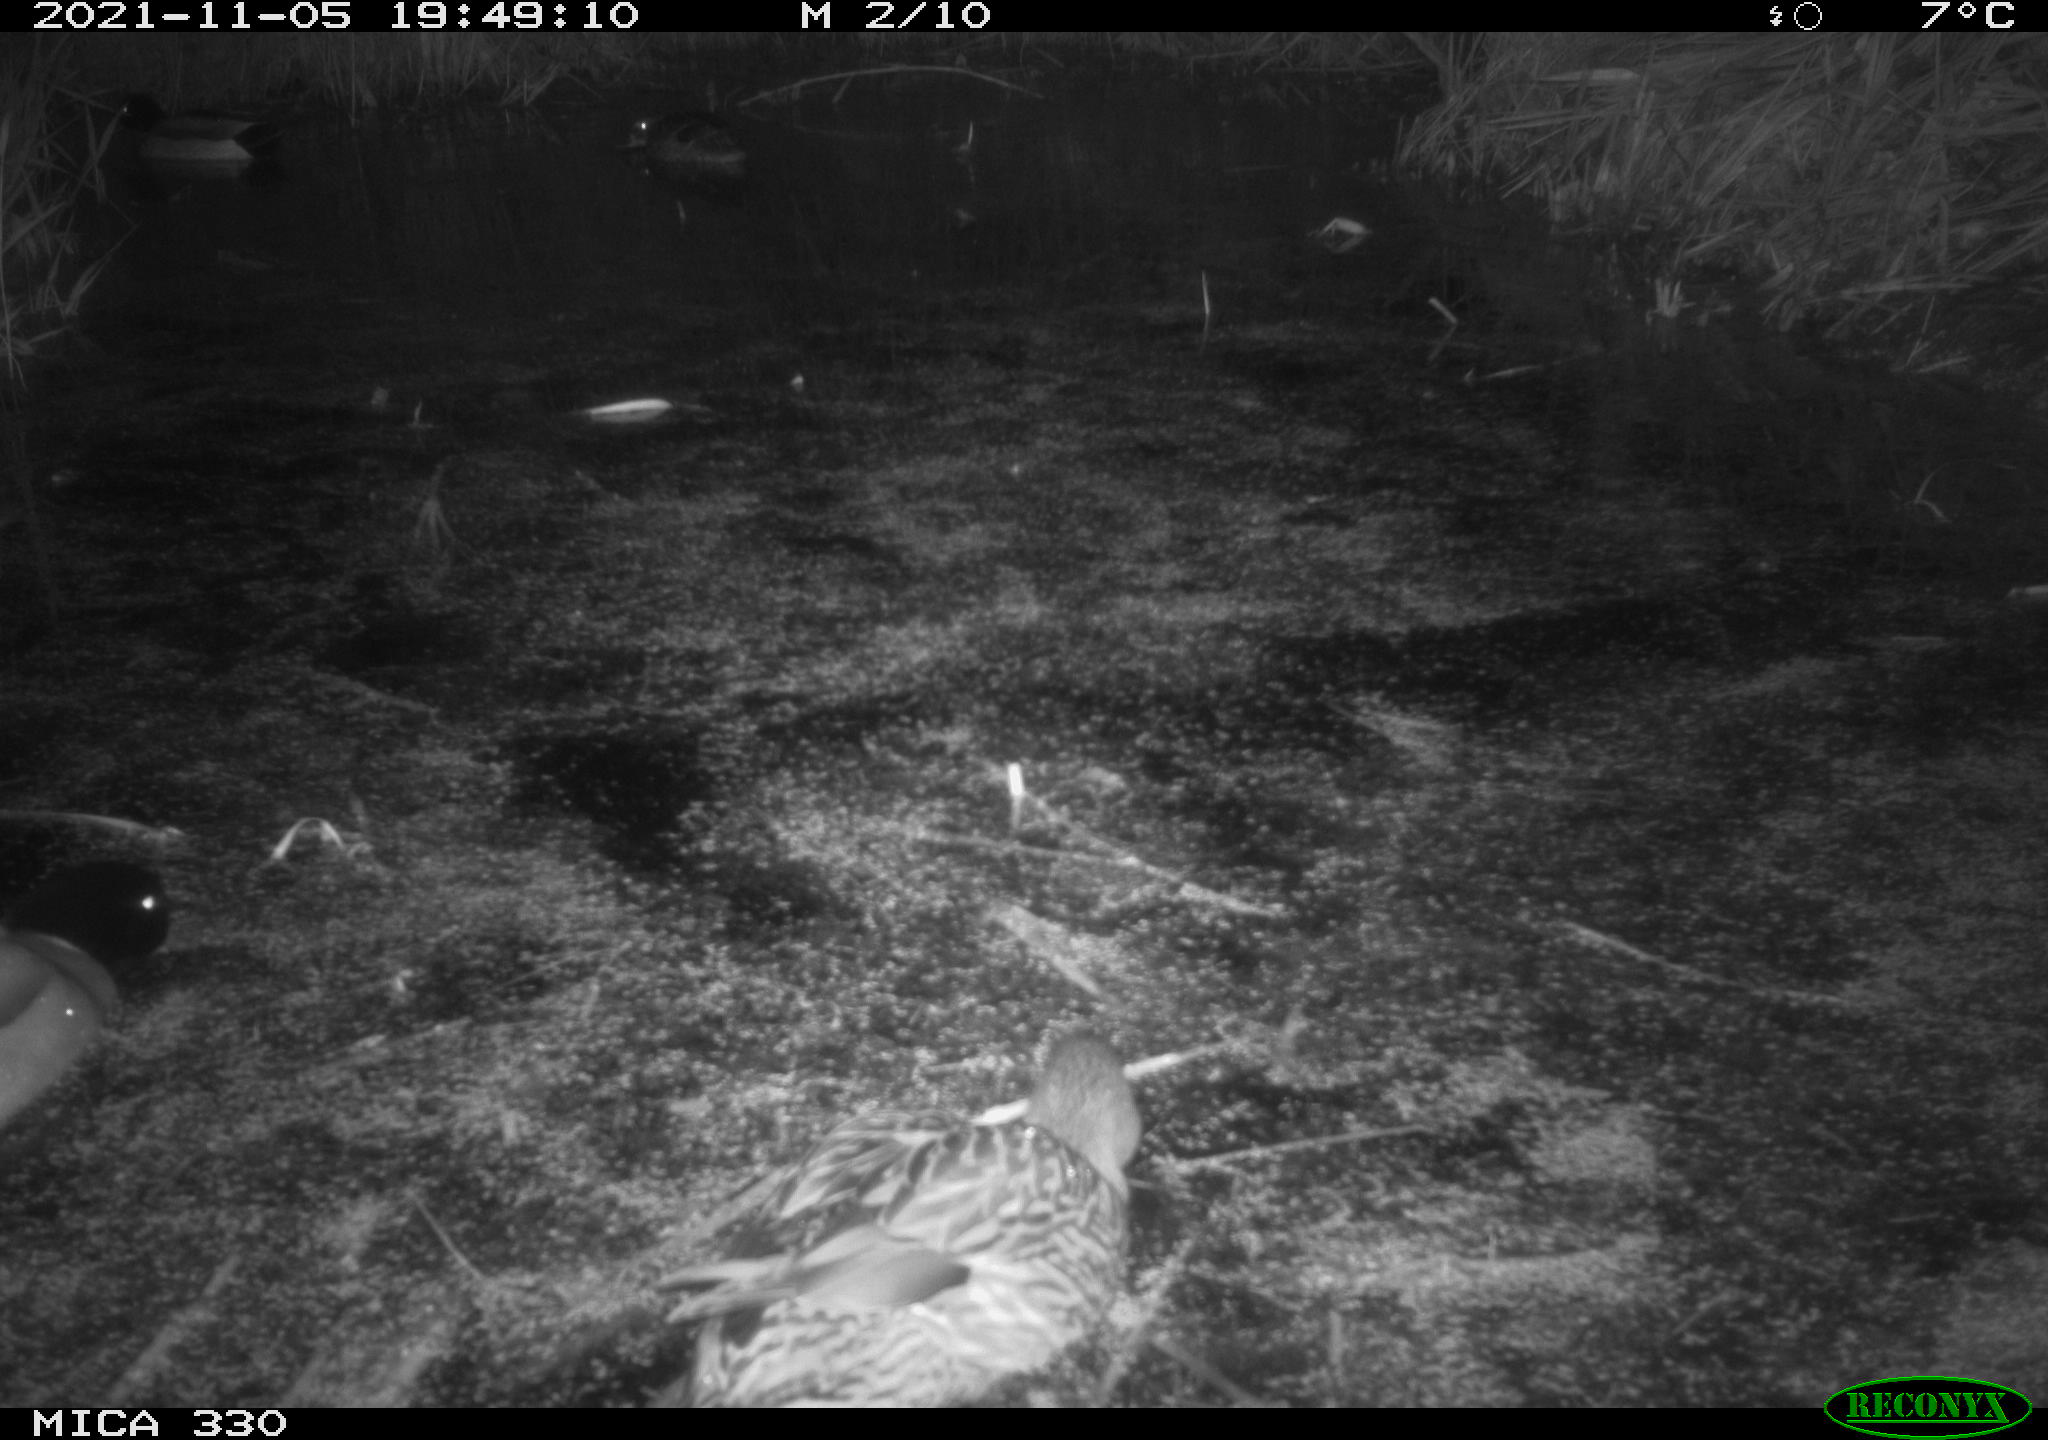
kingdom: Animalia
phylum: Chordata
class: Aves
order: Anseriformes
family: Anatidae
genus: Anas
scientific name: Anas platyrhynchos
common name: Mallard
